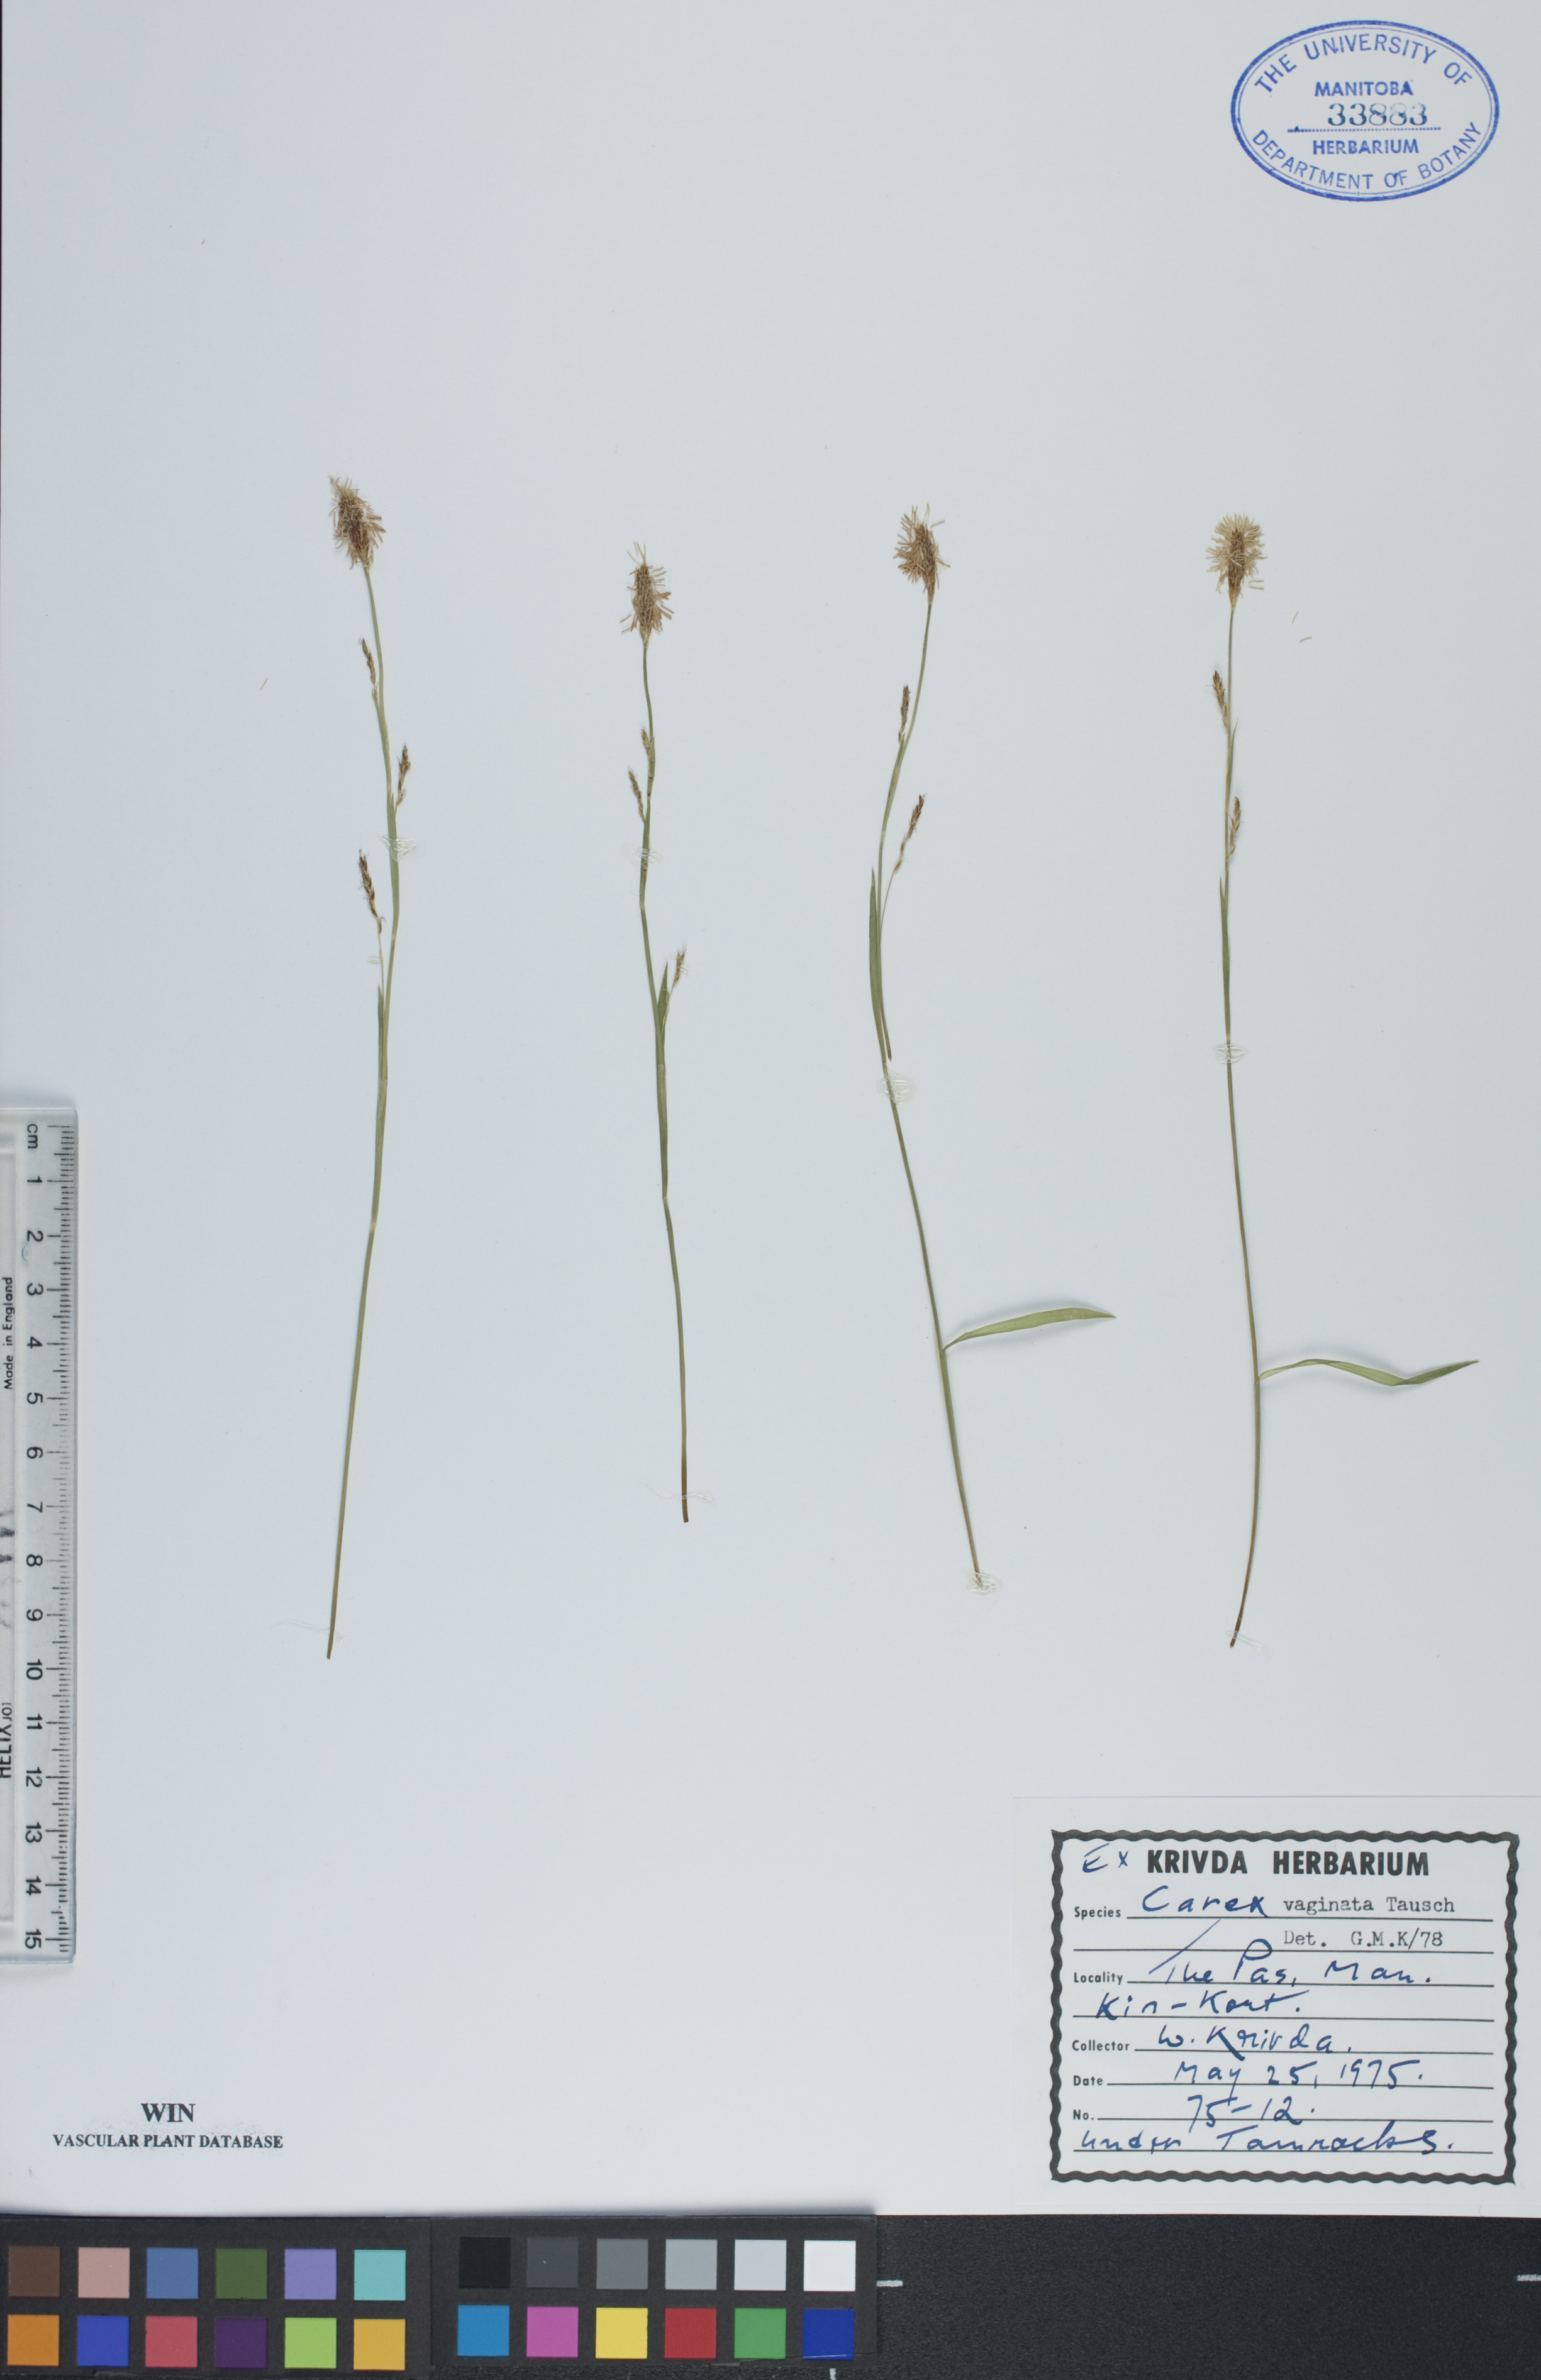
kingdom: Plantae
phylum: Tracheophyta
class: Liliopsida
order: Poales
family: Cyperaceae
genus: Carex
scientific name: Carex vaginata
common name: Sheathed sedge
